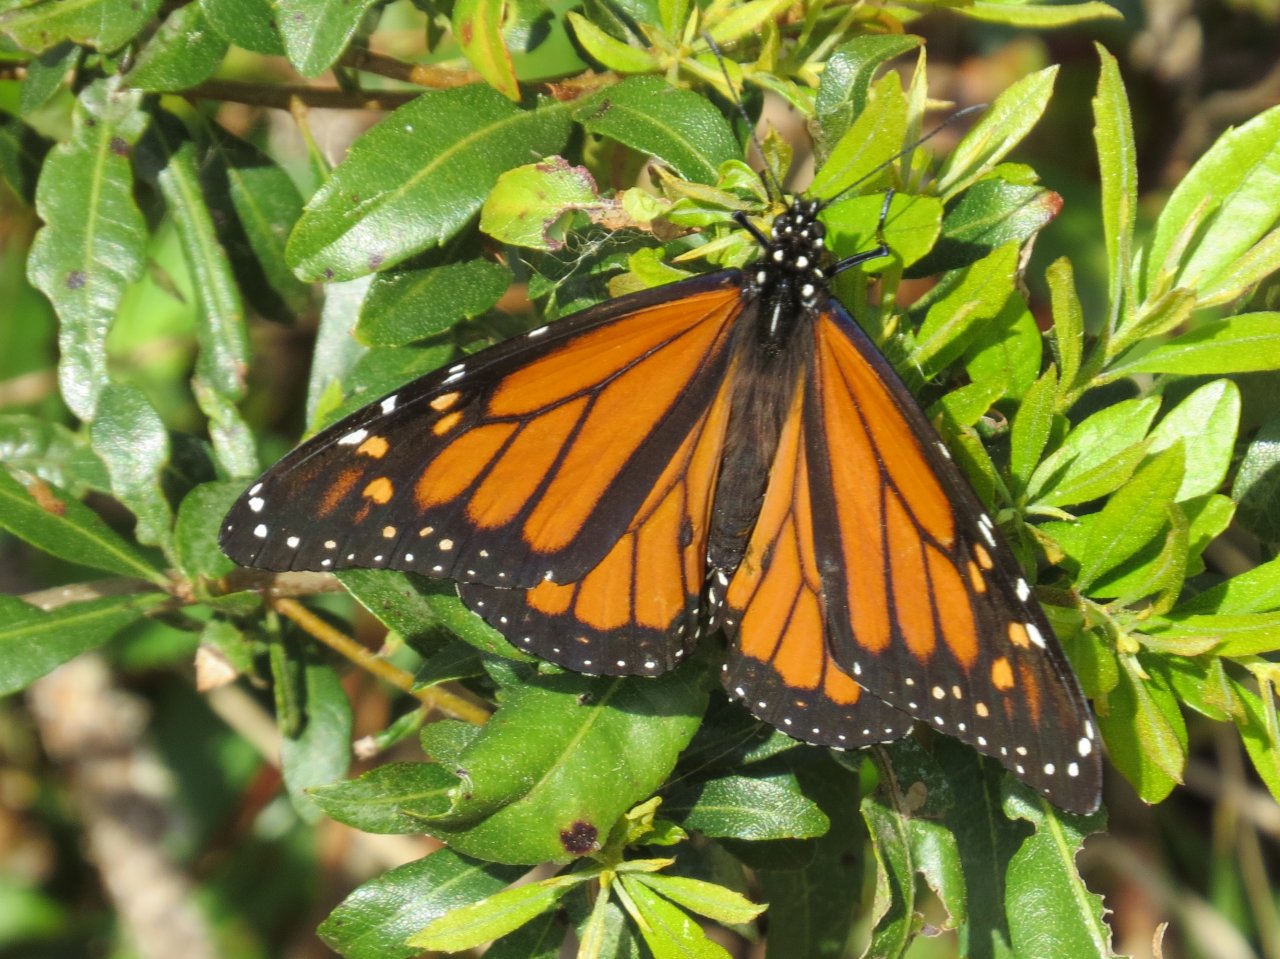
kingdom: Animalia
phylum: Arthropoda
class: Insecta
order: Lepidoptera
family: Nymphalidae
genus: Danaus
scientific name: Danaus plexippus
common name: Monarch
